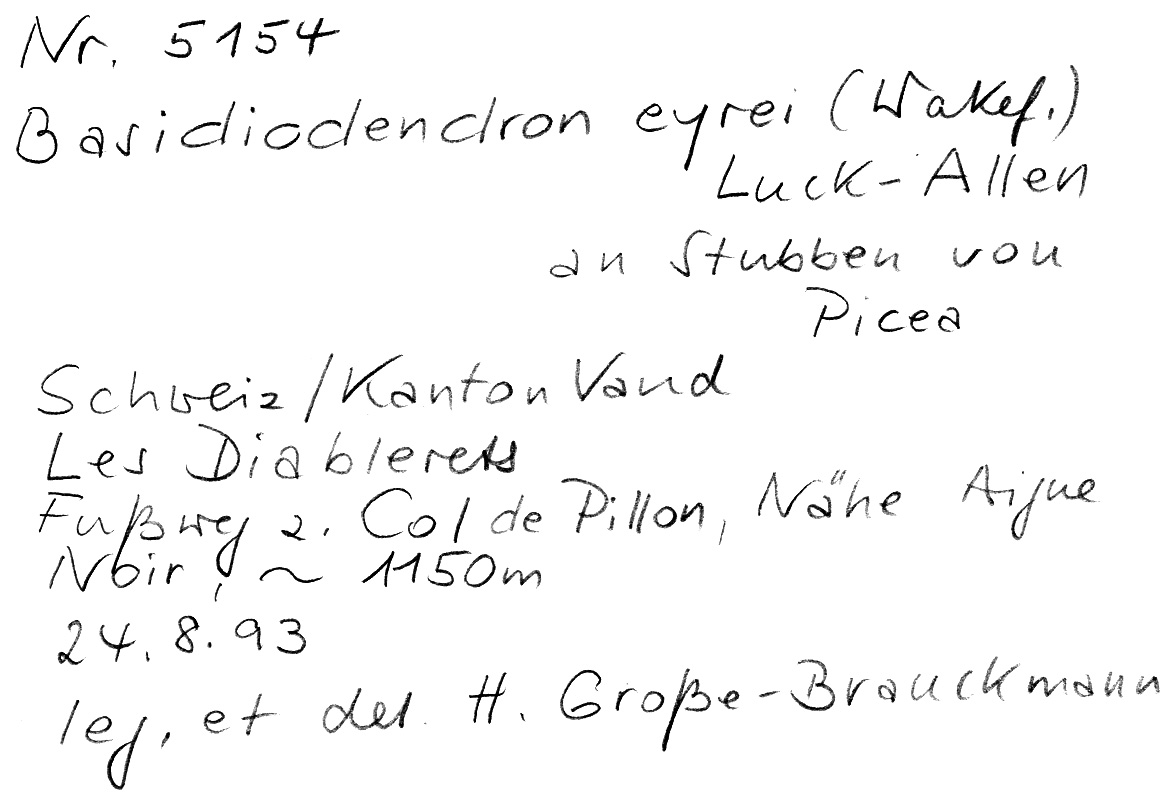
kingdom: Plantae
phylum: Tracheophyta
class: Pinopsida
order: Pinales
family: Pinaceae
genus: Picea
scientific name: Picea
